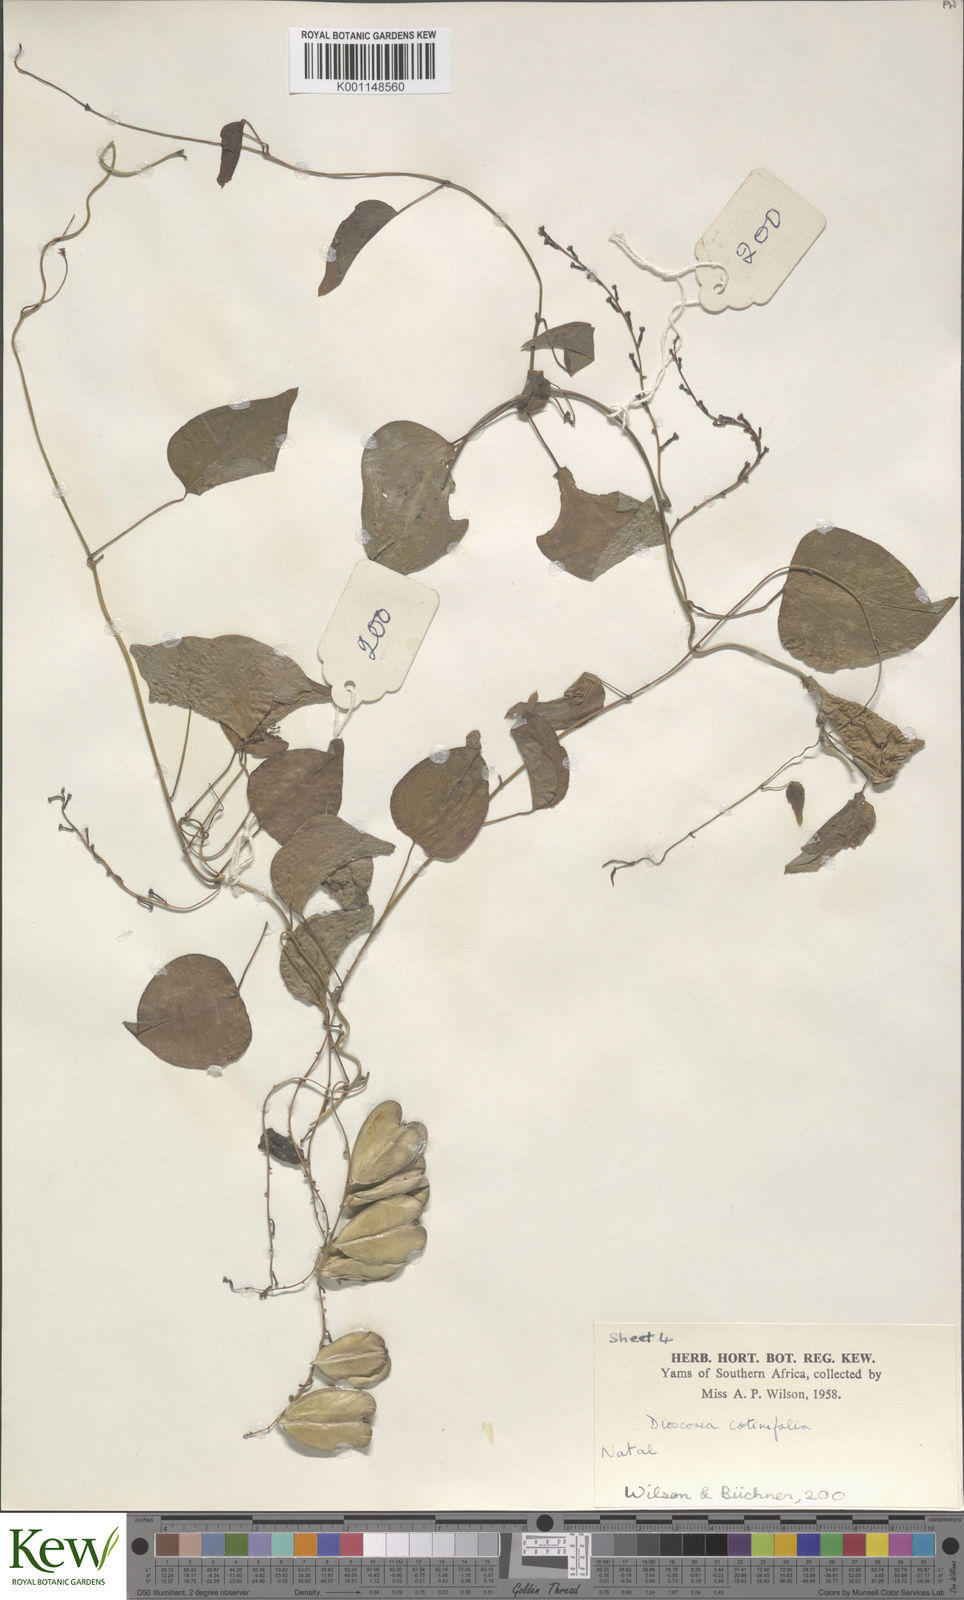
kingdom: Plantae
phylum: Tracheophyta
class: Liliopsida
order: Dioscoreales
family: Dioscoreaceae
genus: Dioscorea
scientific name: Dioscorea cotinifolia
